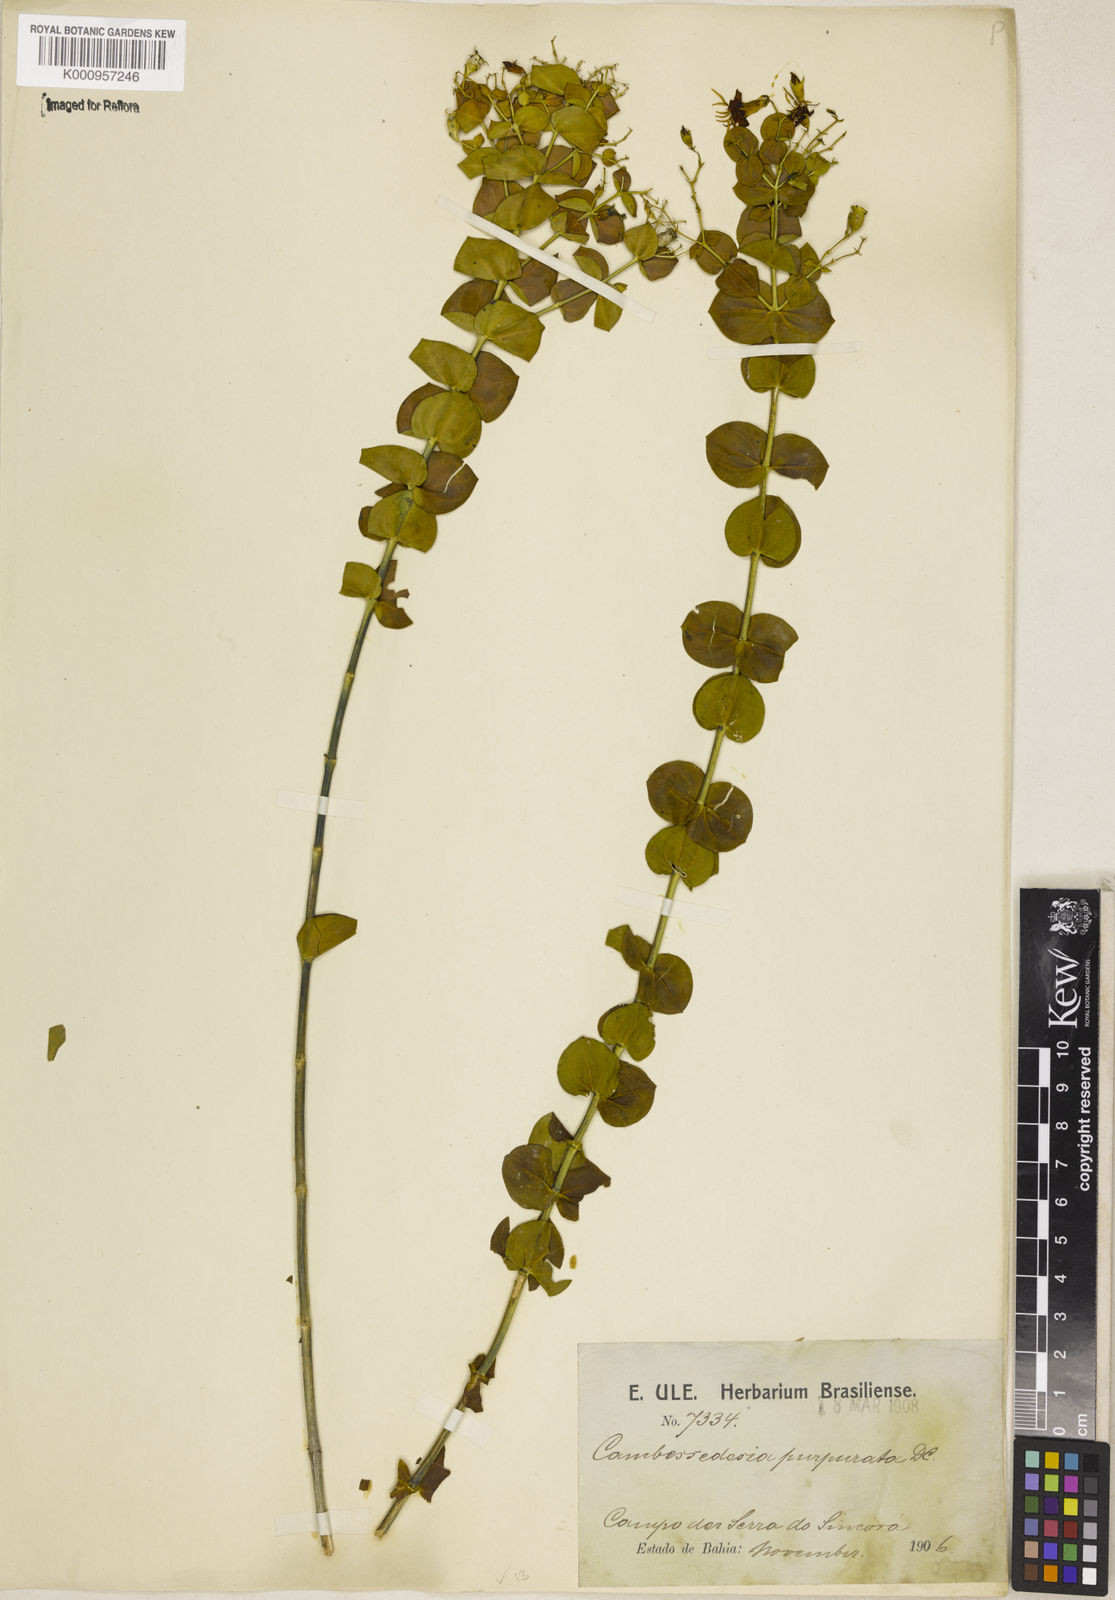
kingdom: Plantae
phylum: Tracheophyta
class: Magnoliopsida
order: Myrtales
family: Melastomataceae
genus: Cambessedesia
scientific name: Cambessedesia purpurata
